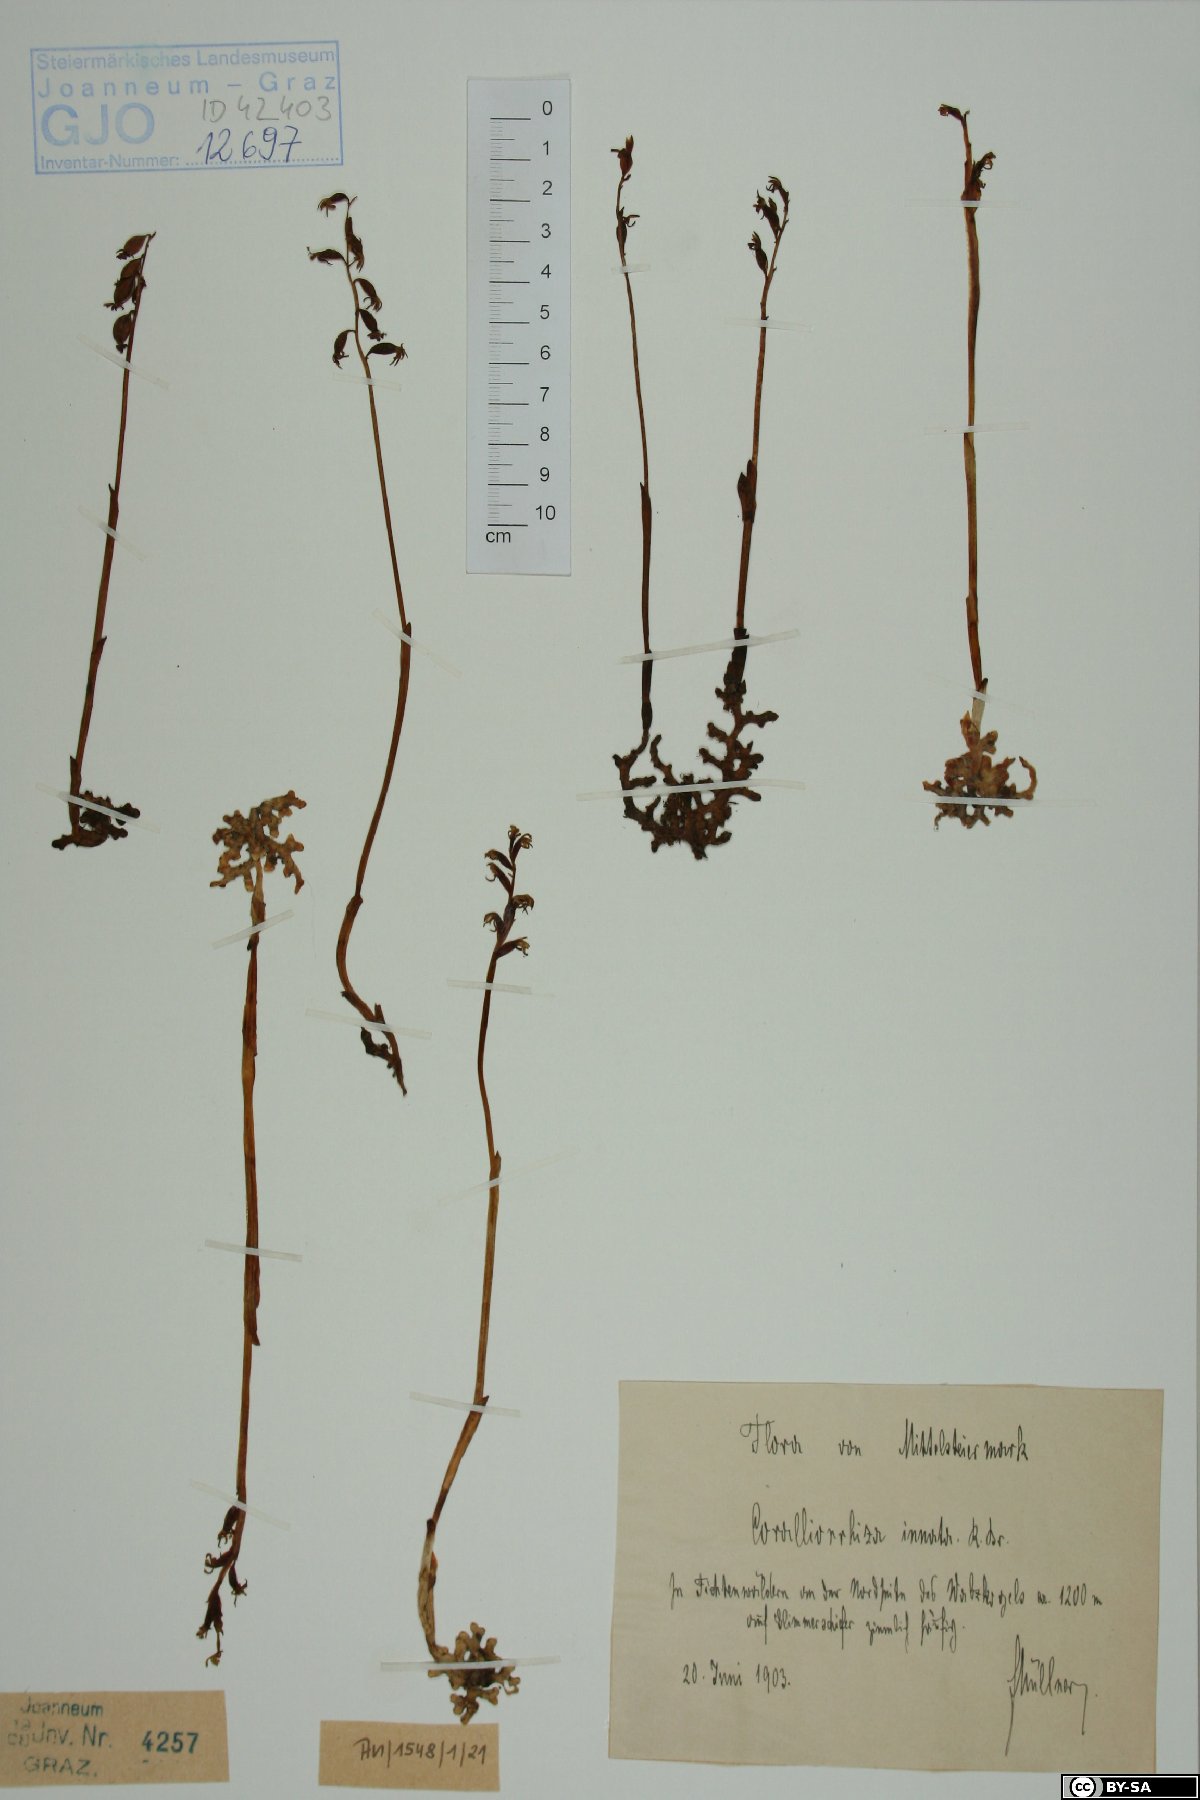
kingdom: Plantae
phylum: Tracheophyta
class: Liliopsida
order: Asparagales
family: Orchidaceae
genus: Corallorhiza
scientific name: Corallorhiza trifida
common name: Yellow coralroot
